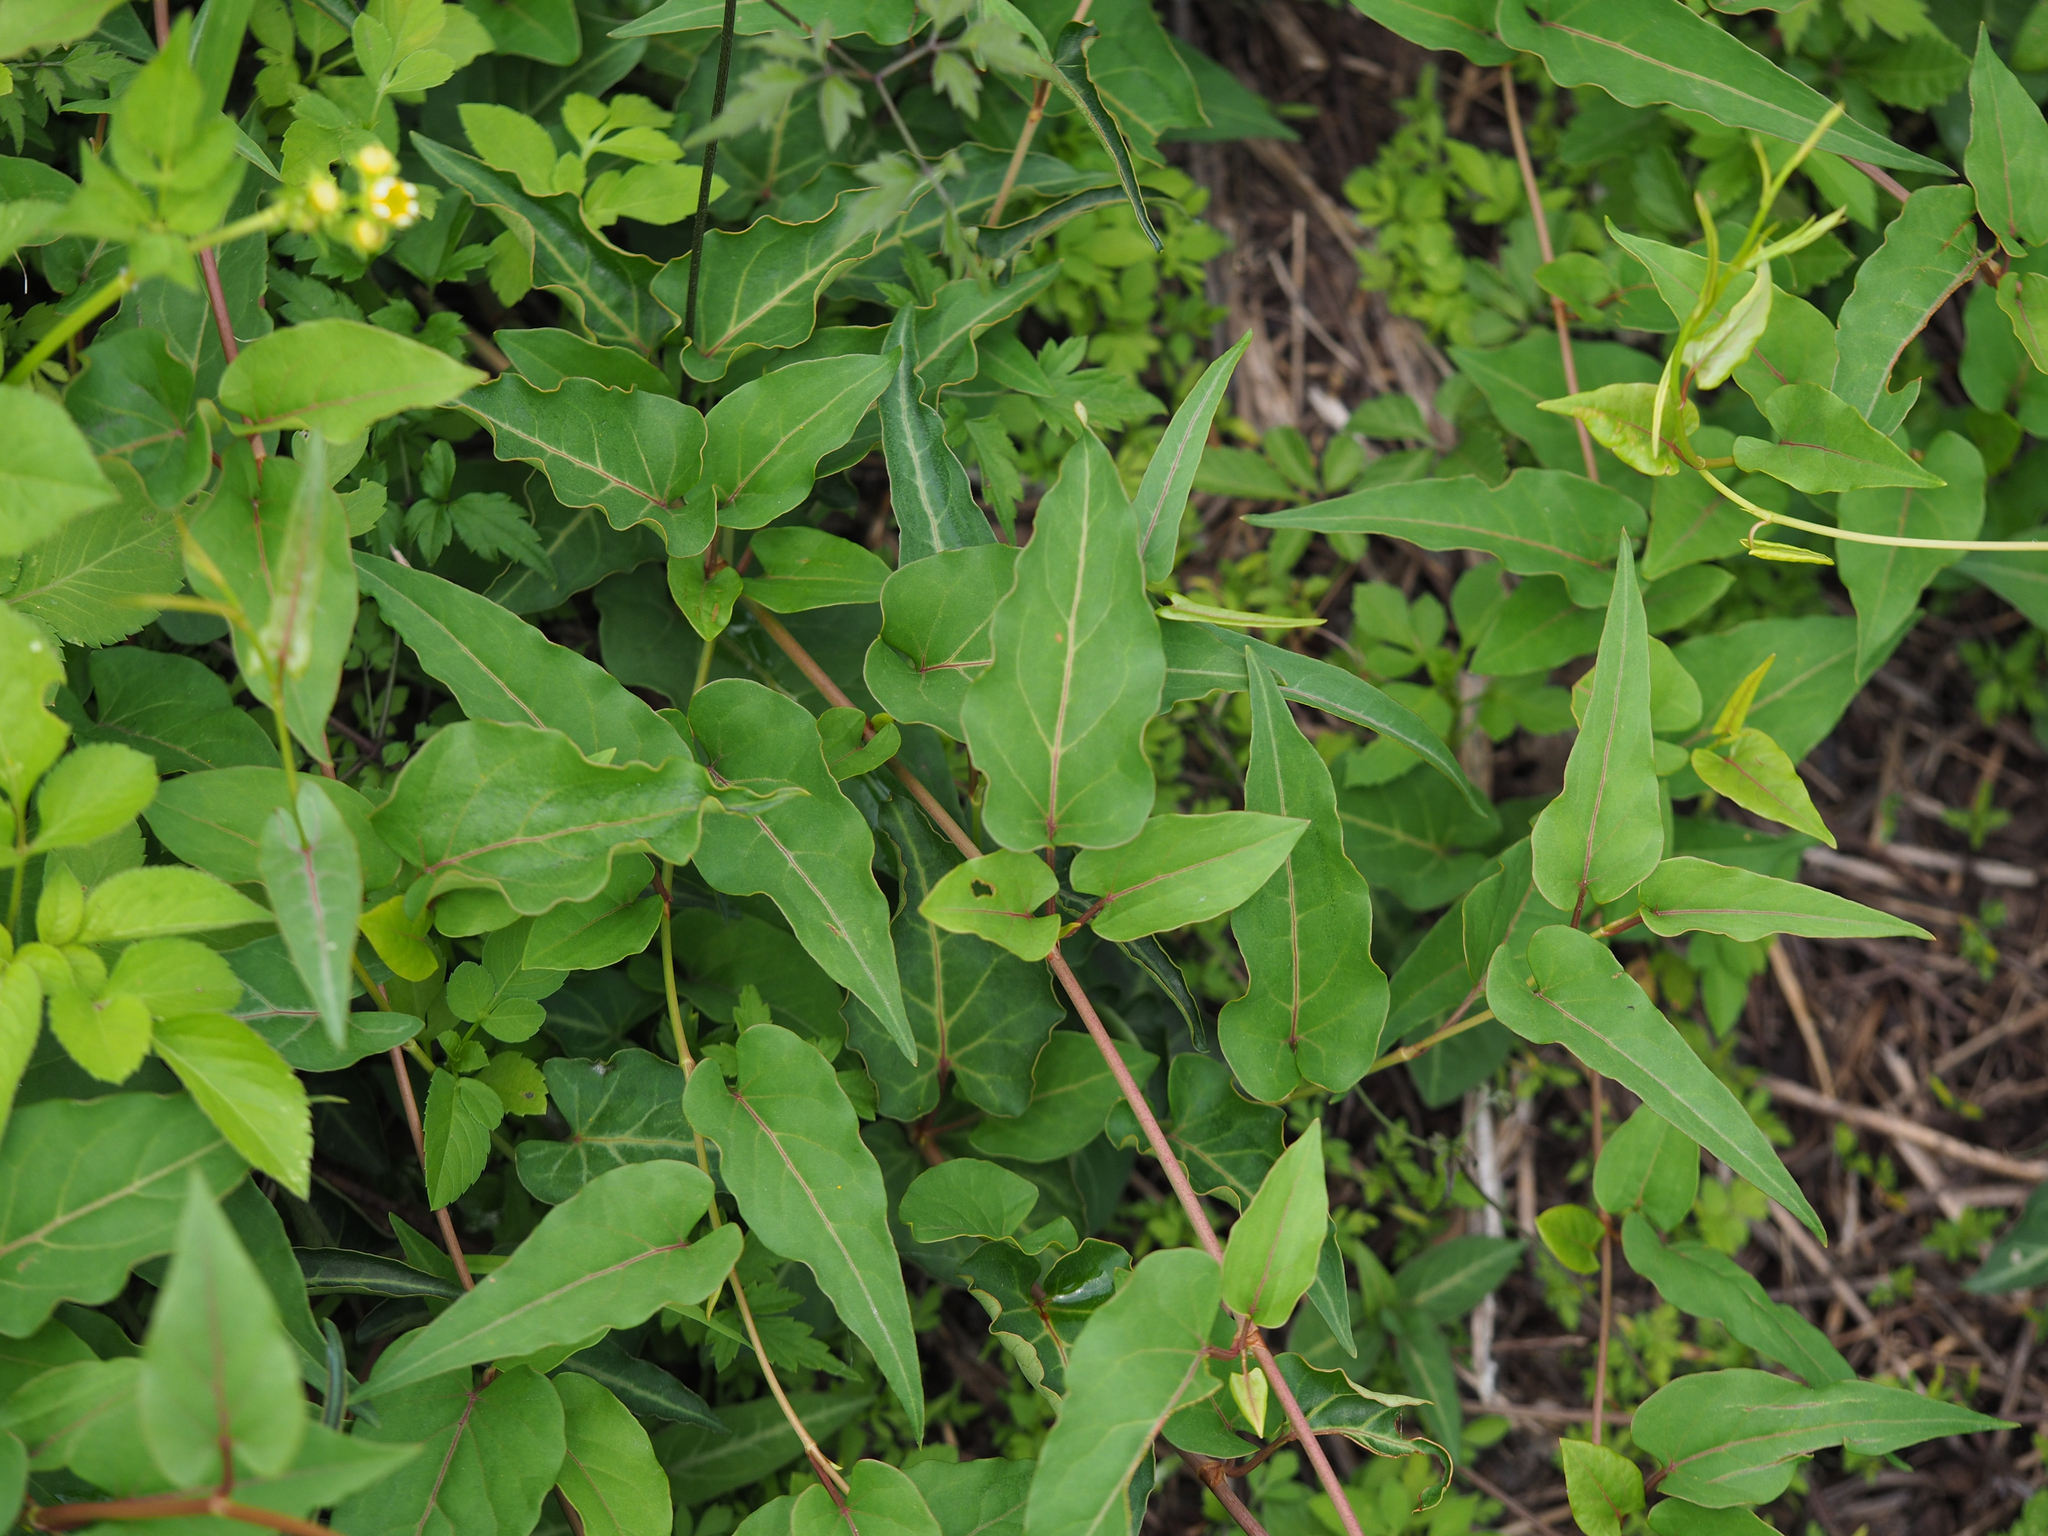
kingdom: Plantae
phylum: Tracheophyta
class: Magnoliopsida
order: Caryophyllales
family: Polygonaceae
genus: Reynoutria
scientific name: Reynoutria multiflora
